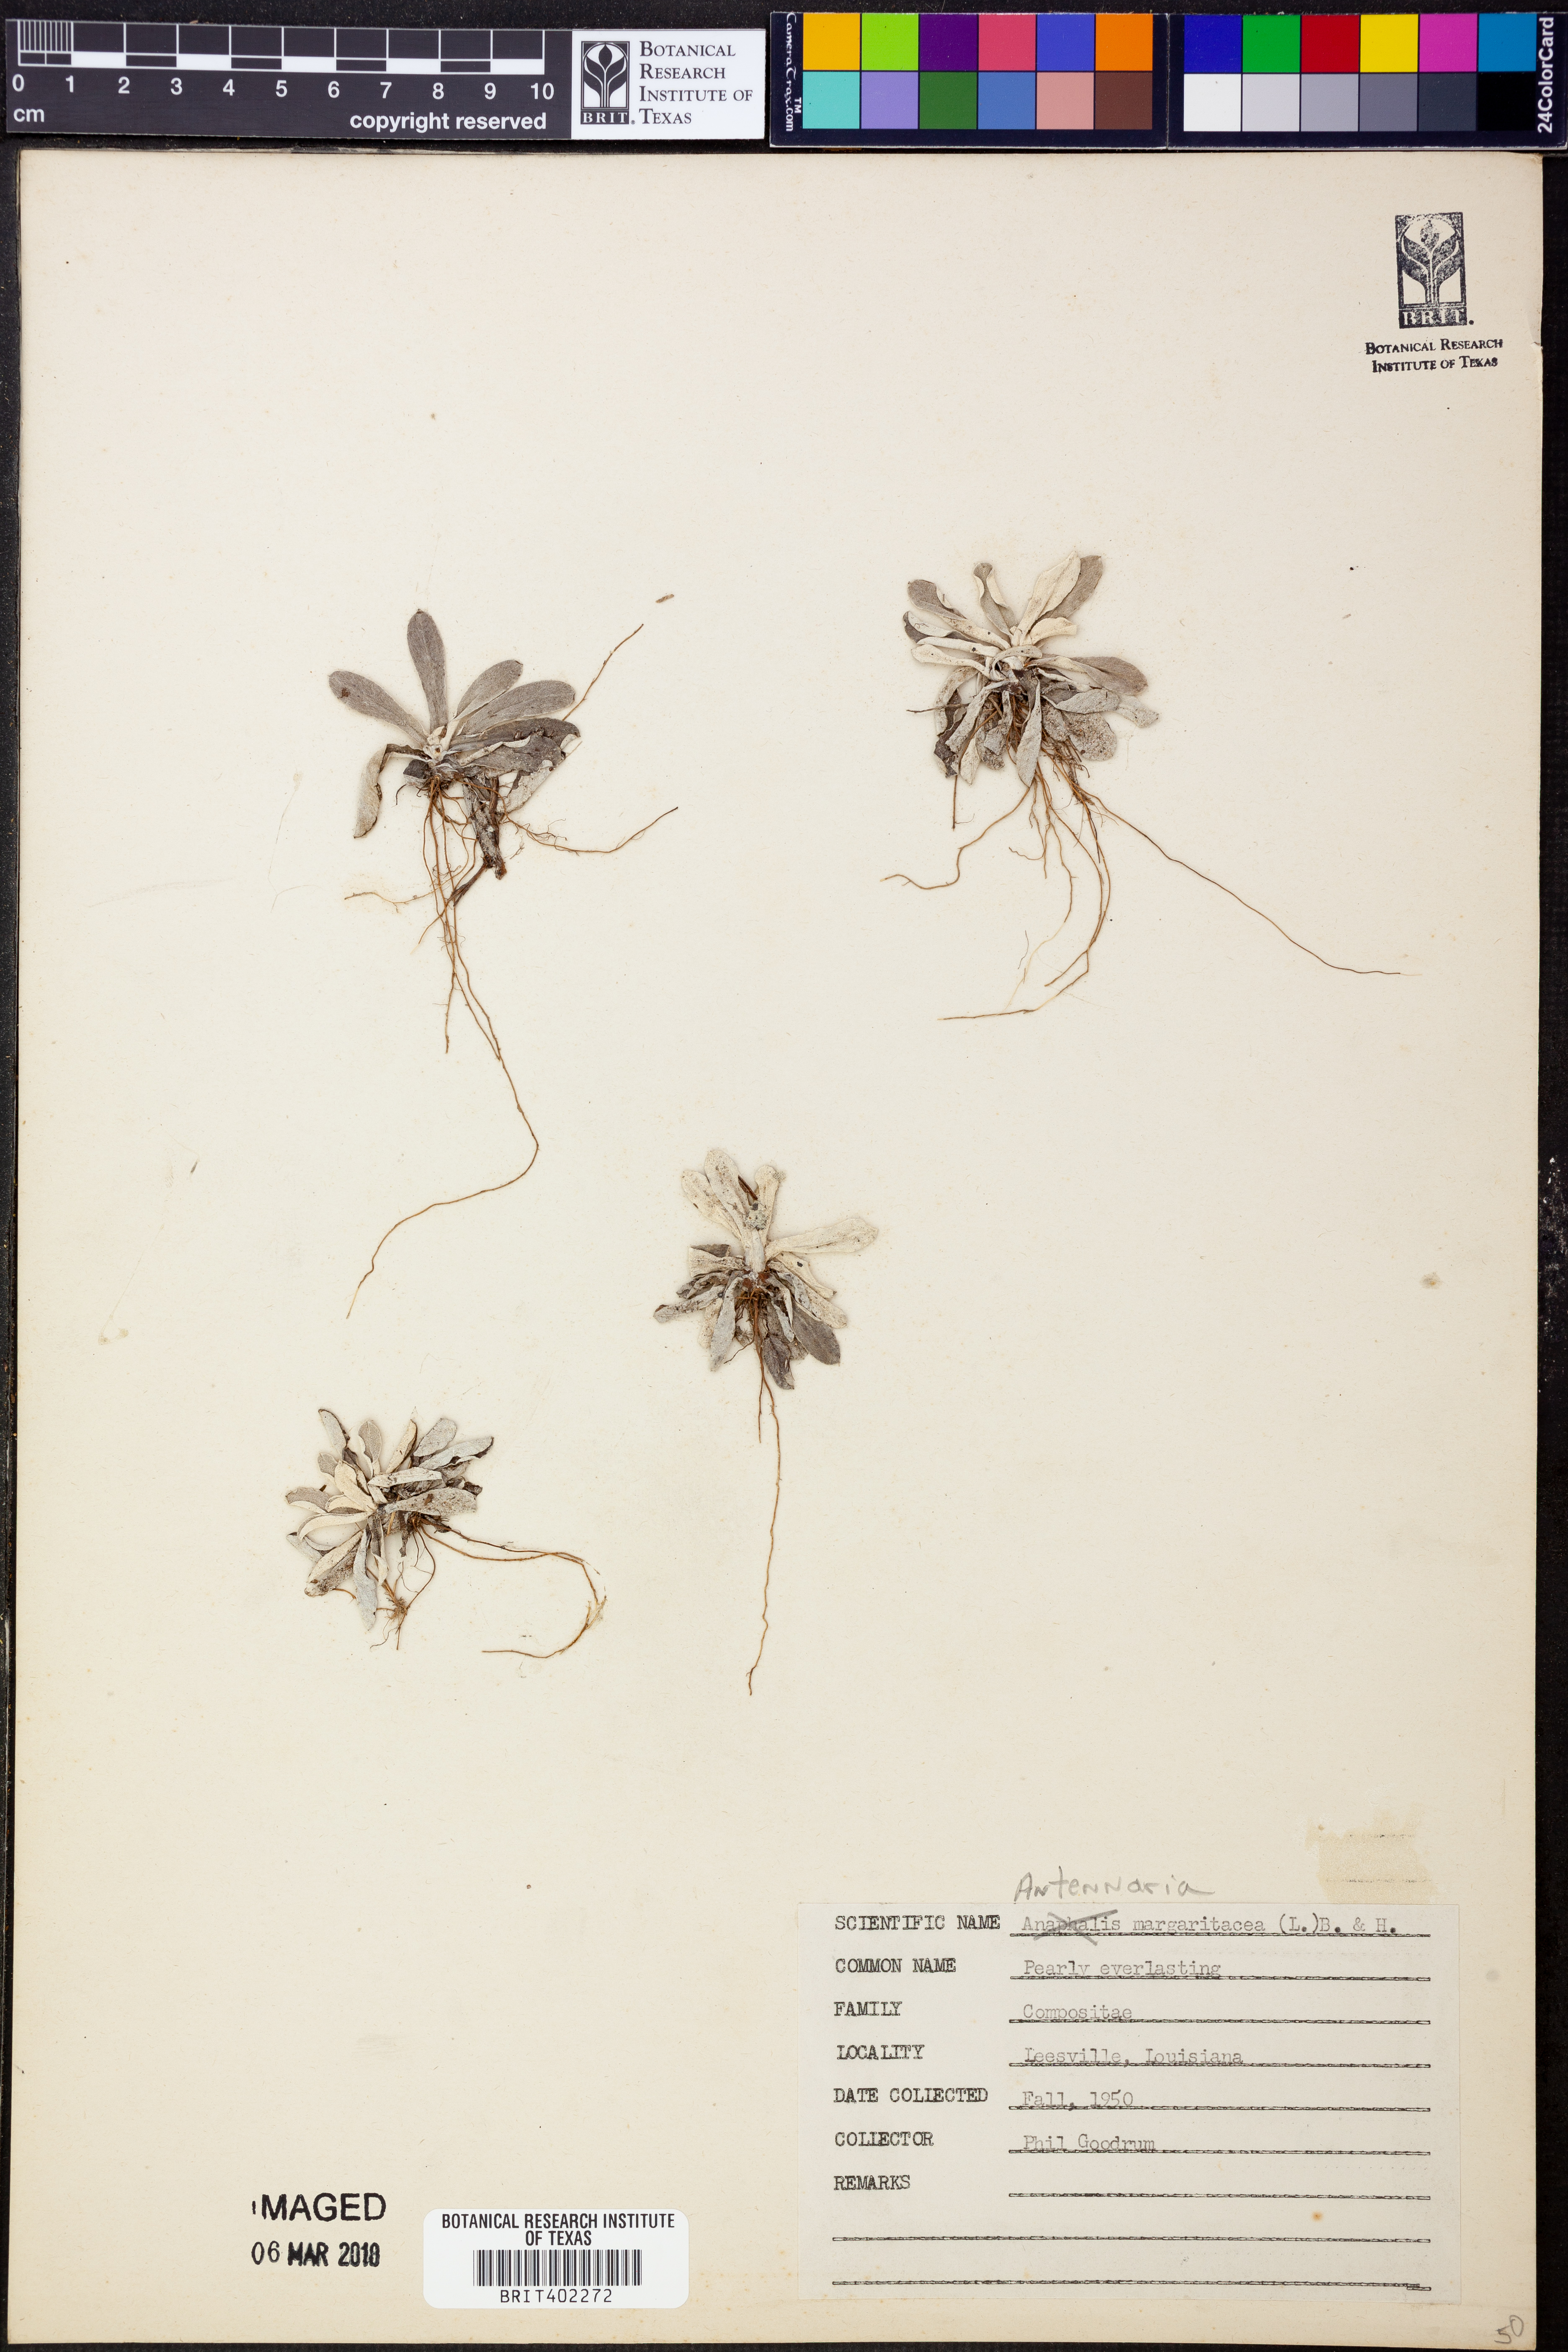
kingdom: Plantae
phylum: Tracheophyta
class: Magnoliopsida
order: Asterales
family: Asteraceae
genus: Anaphalis
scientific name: Anaphalis margaritacea
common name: Pearly everlasting
